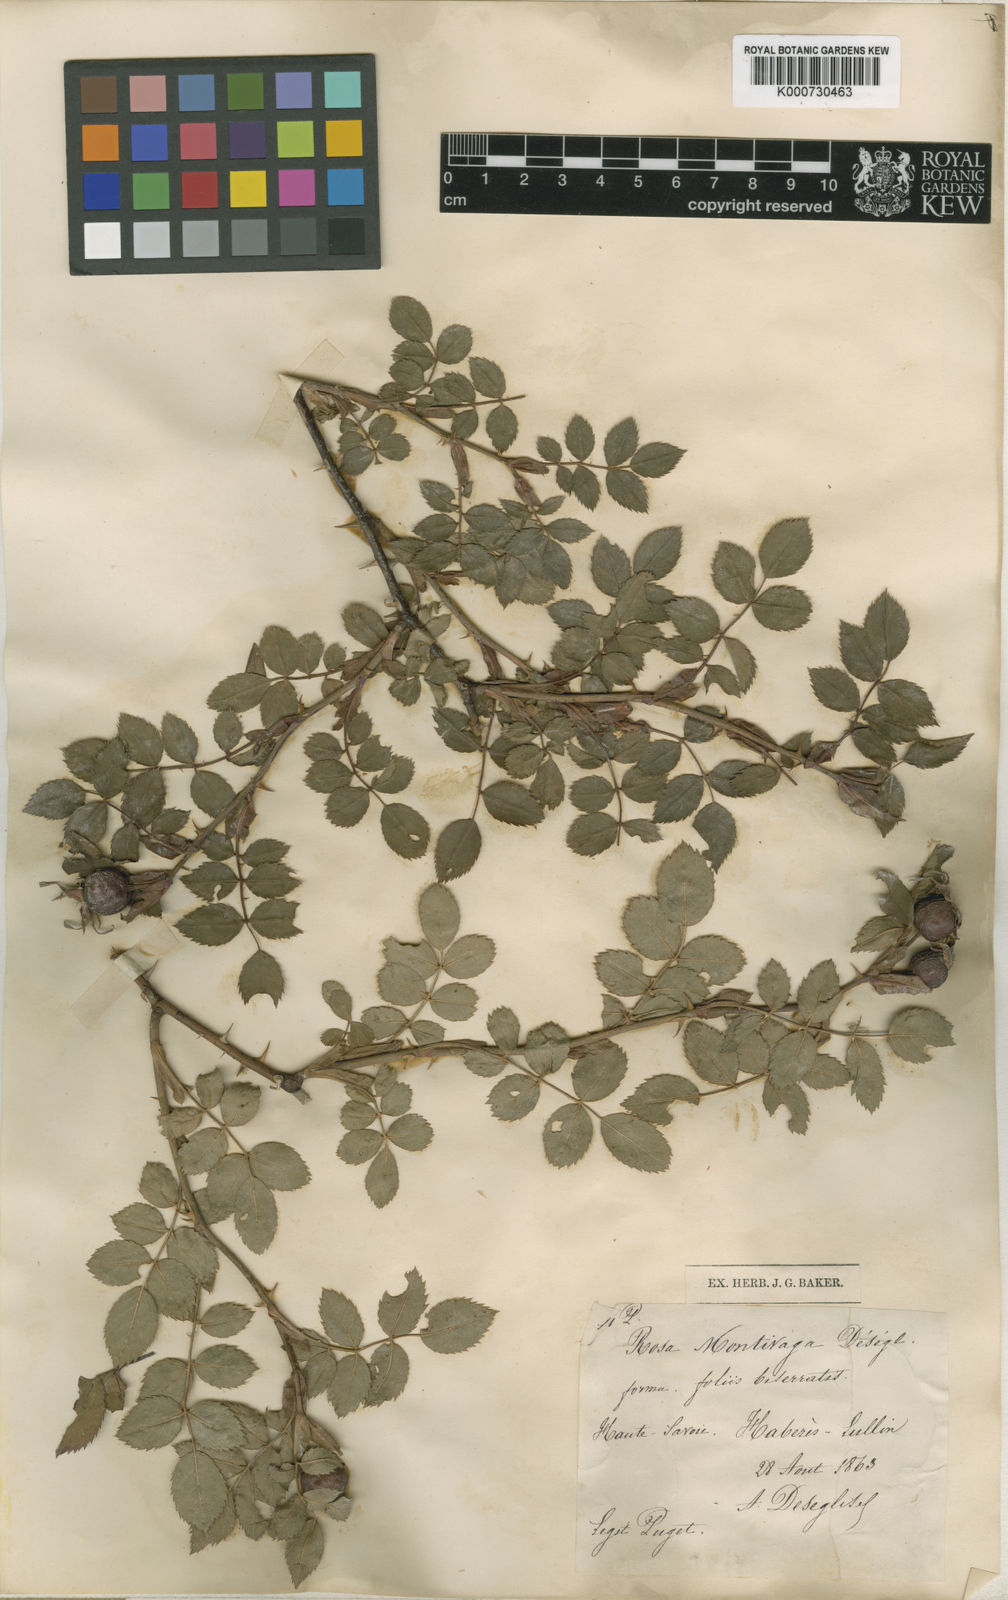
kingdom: Plantae
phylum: Tracheophyta
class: Magnoliopsida
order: Rosales
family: Rosaceae
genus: Rosa
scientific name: Rosa canina
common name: Dog rose
